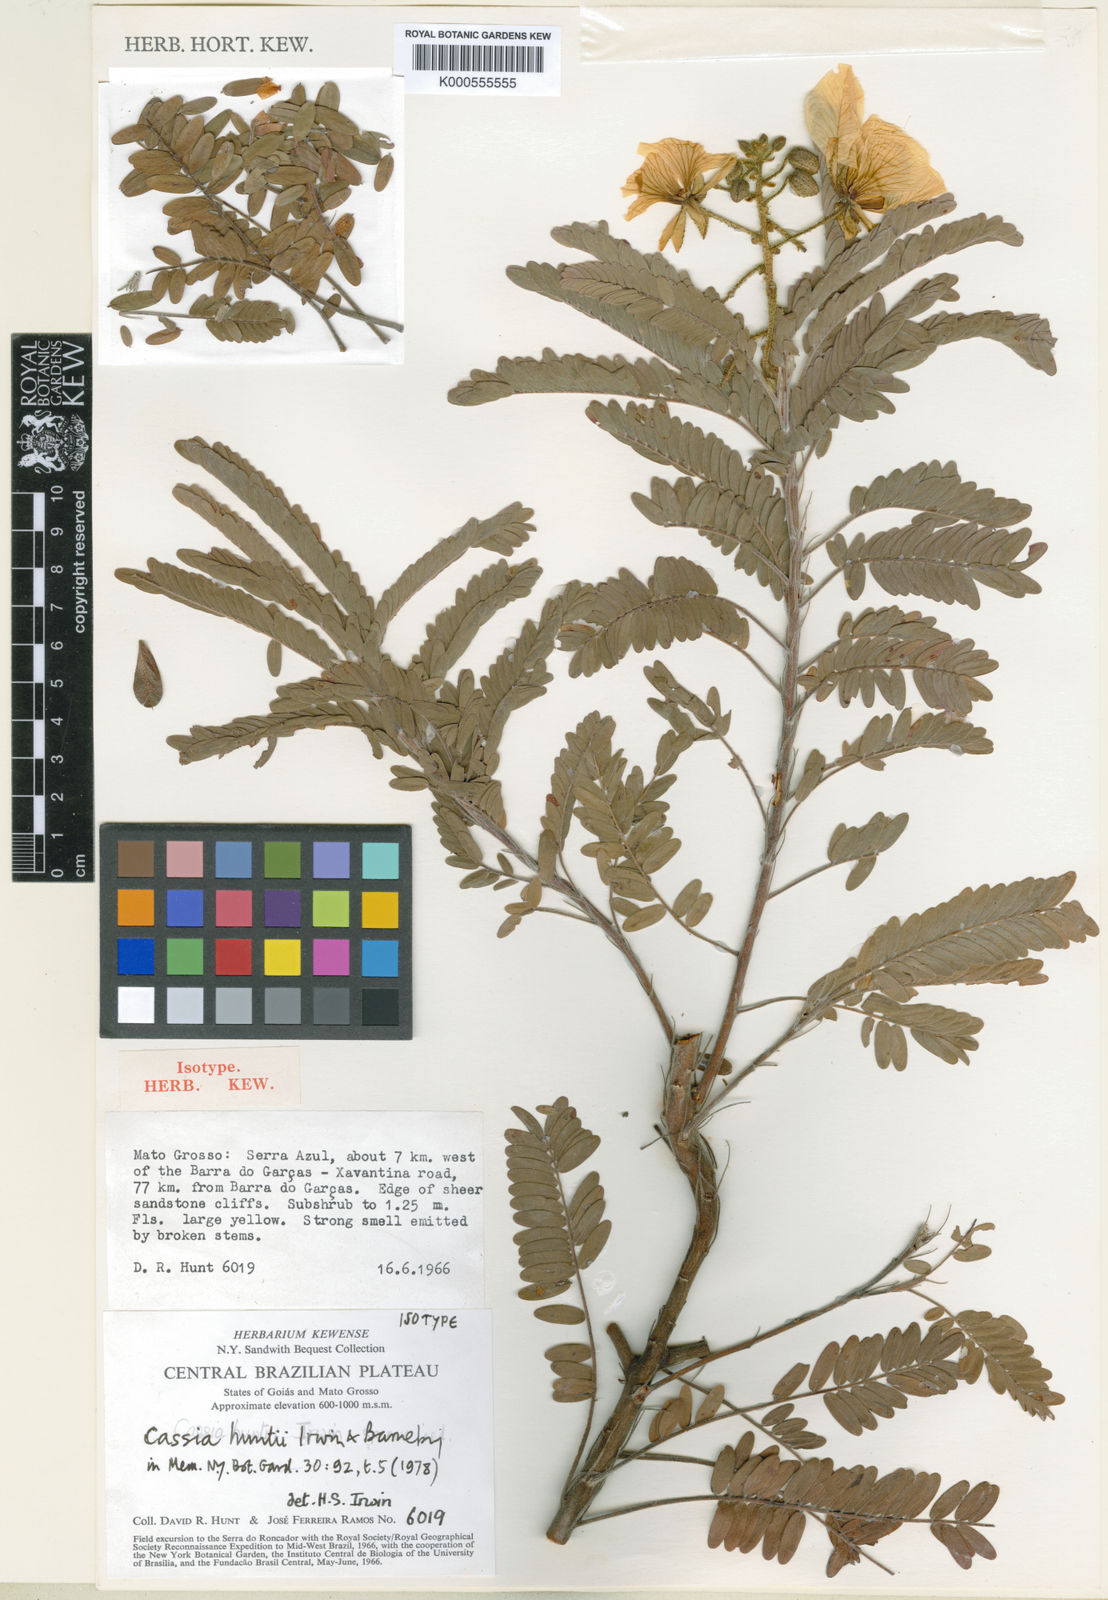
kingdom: Plantae
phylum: Tracheophyta
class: Magnoliopsida
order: Fabales
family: Fabaceae
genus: Chamaecrista
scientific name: Chamaecrista huntii
